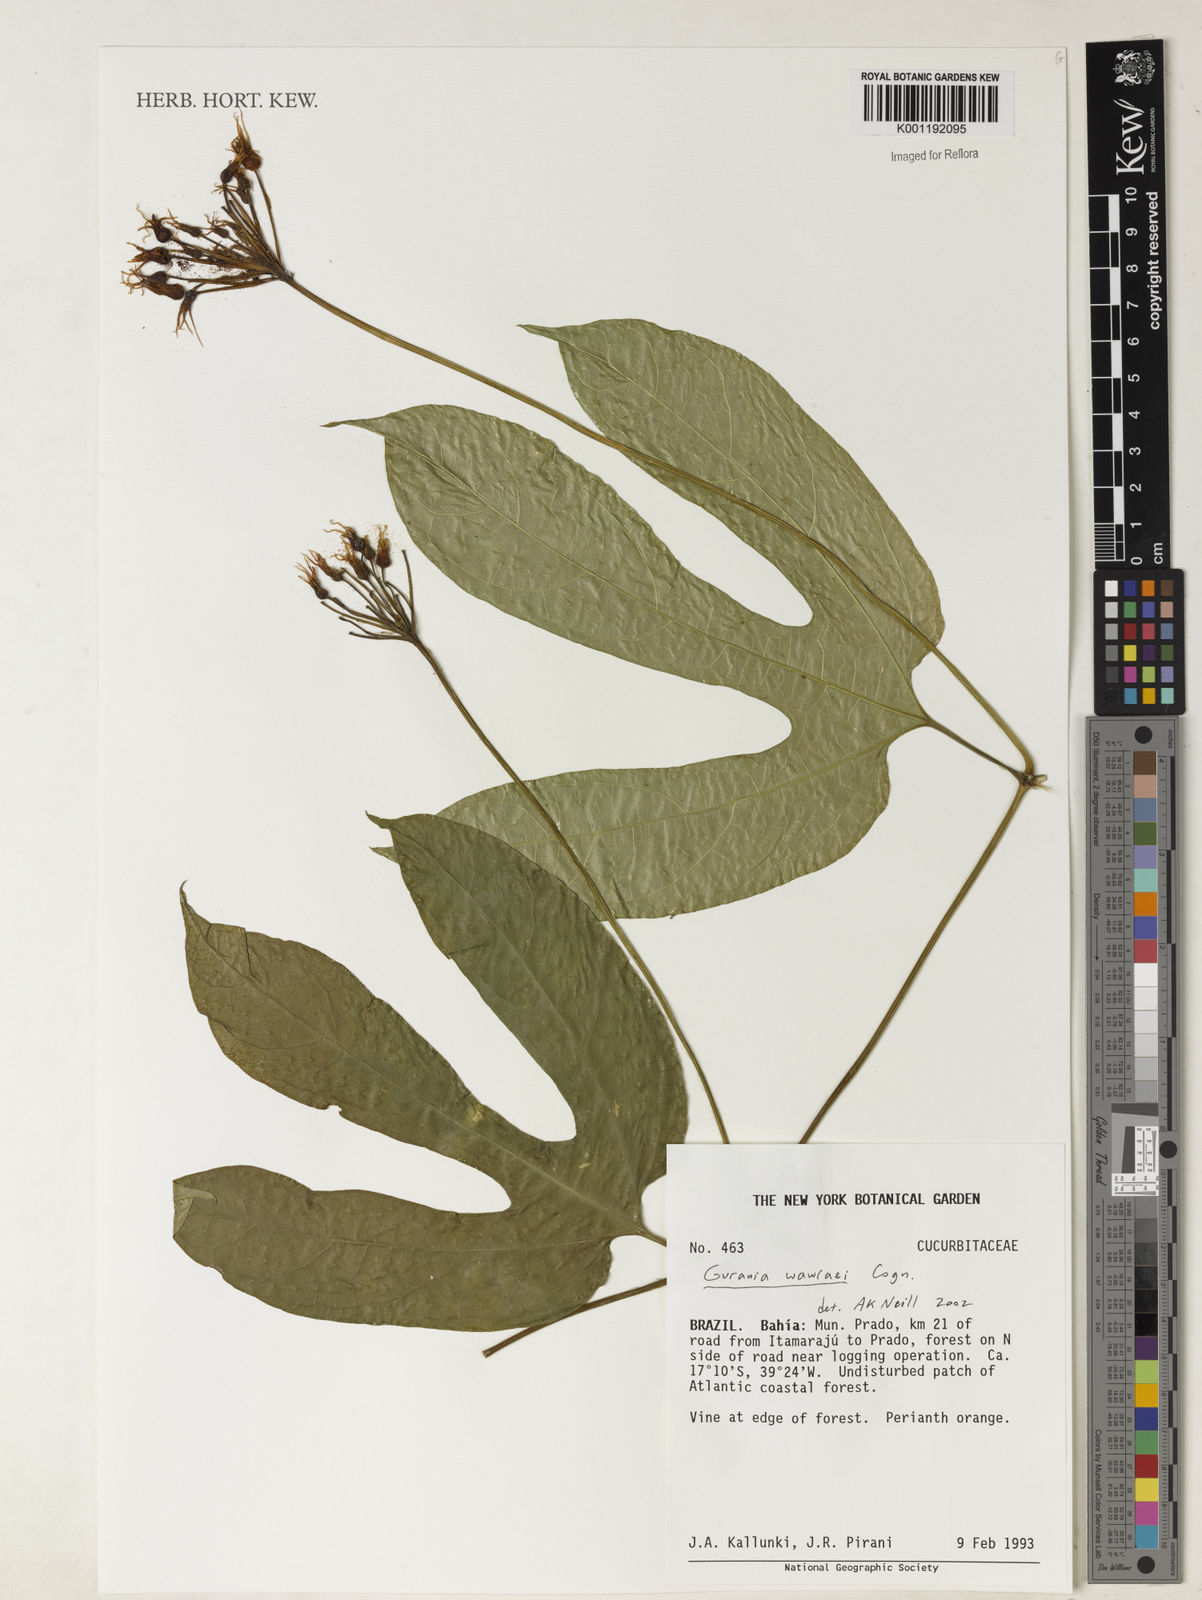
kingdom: Plantae
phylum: Tracheophyta
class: Magnoliopsida
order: Cucurbitales
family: Cucurbitaceae
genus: Gurania
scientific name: Gurania
